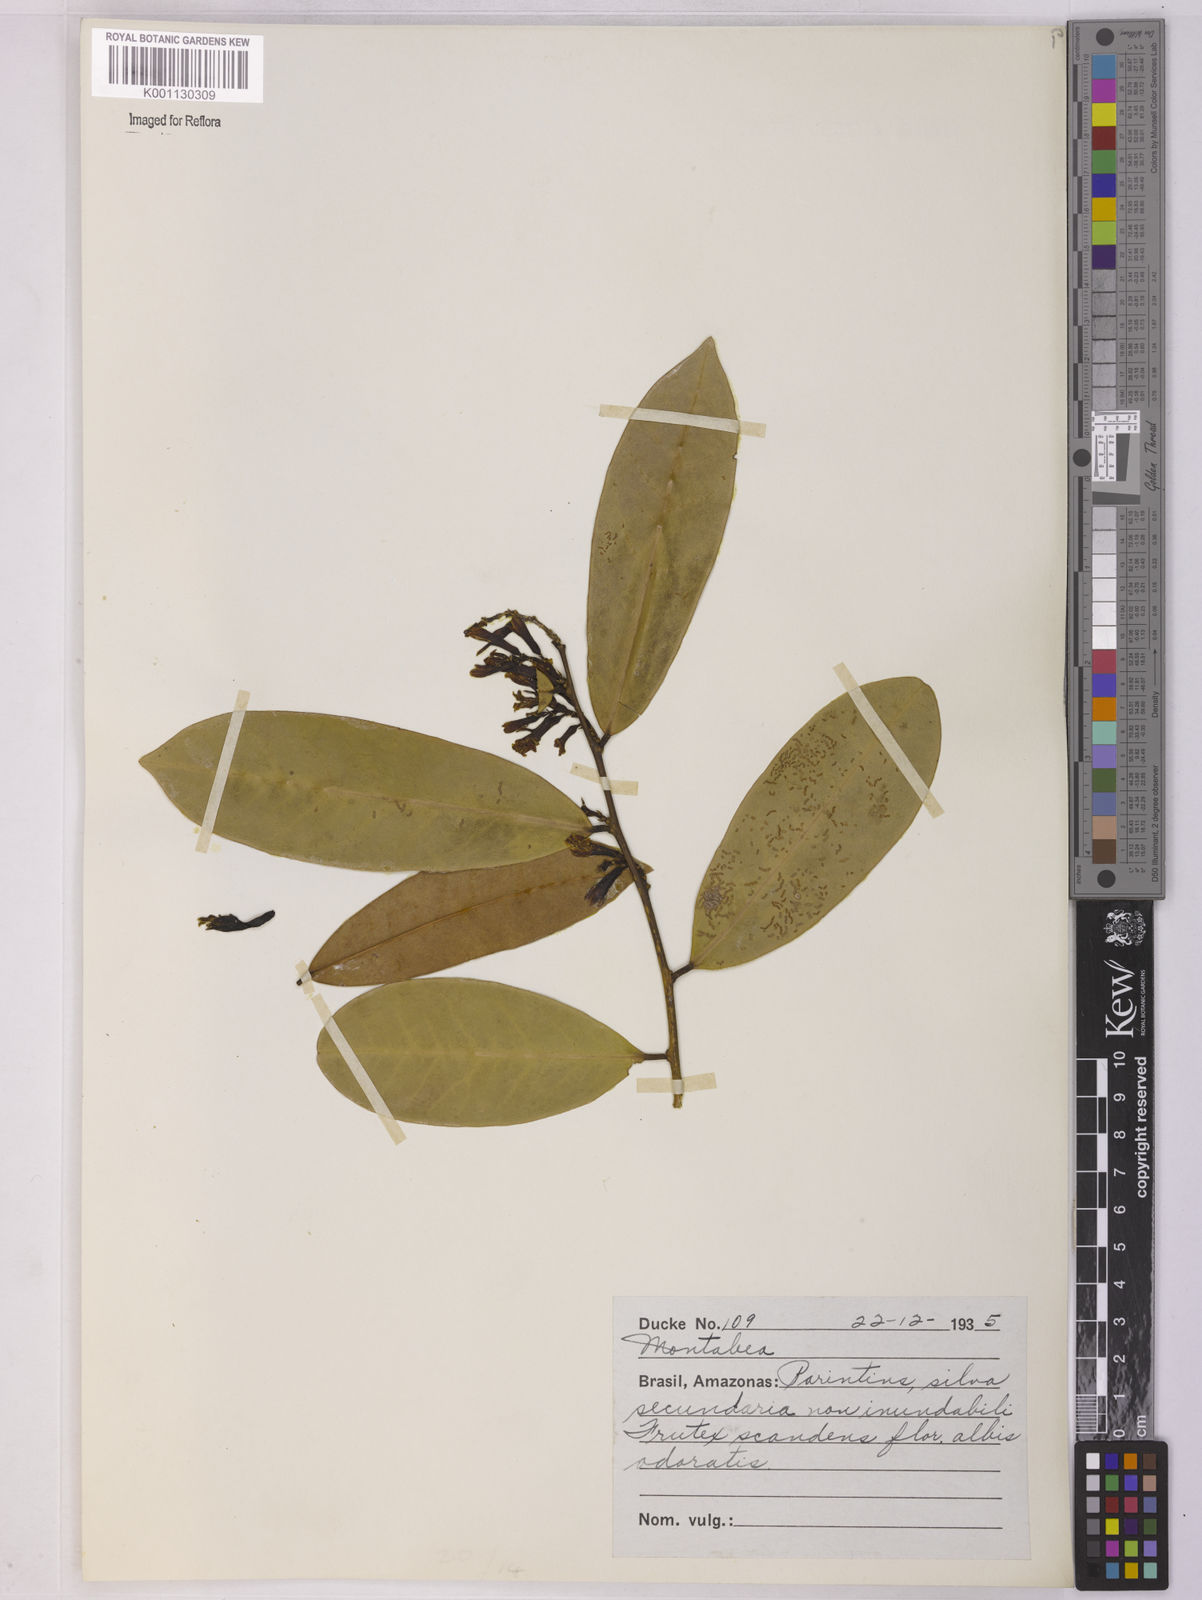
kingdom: Plantae
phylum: Tracheophyta
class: Magnoliopsida
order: Fabales
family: Polygalaceae
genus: Moutabea
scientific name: Moutabea
